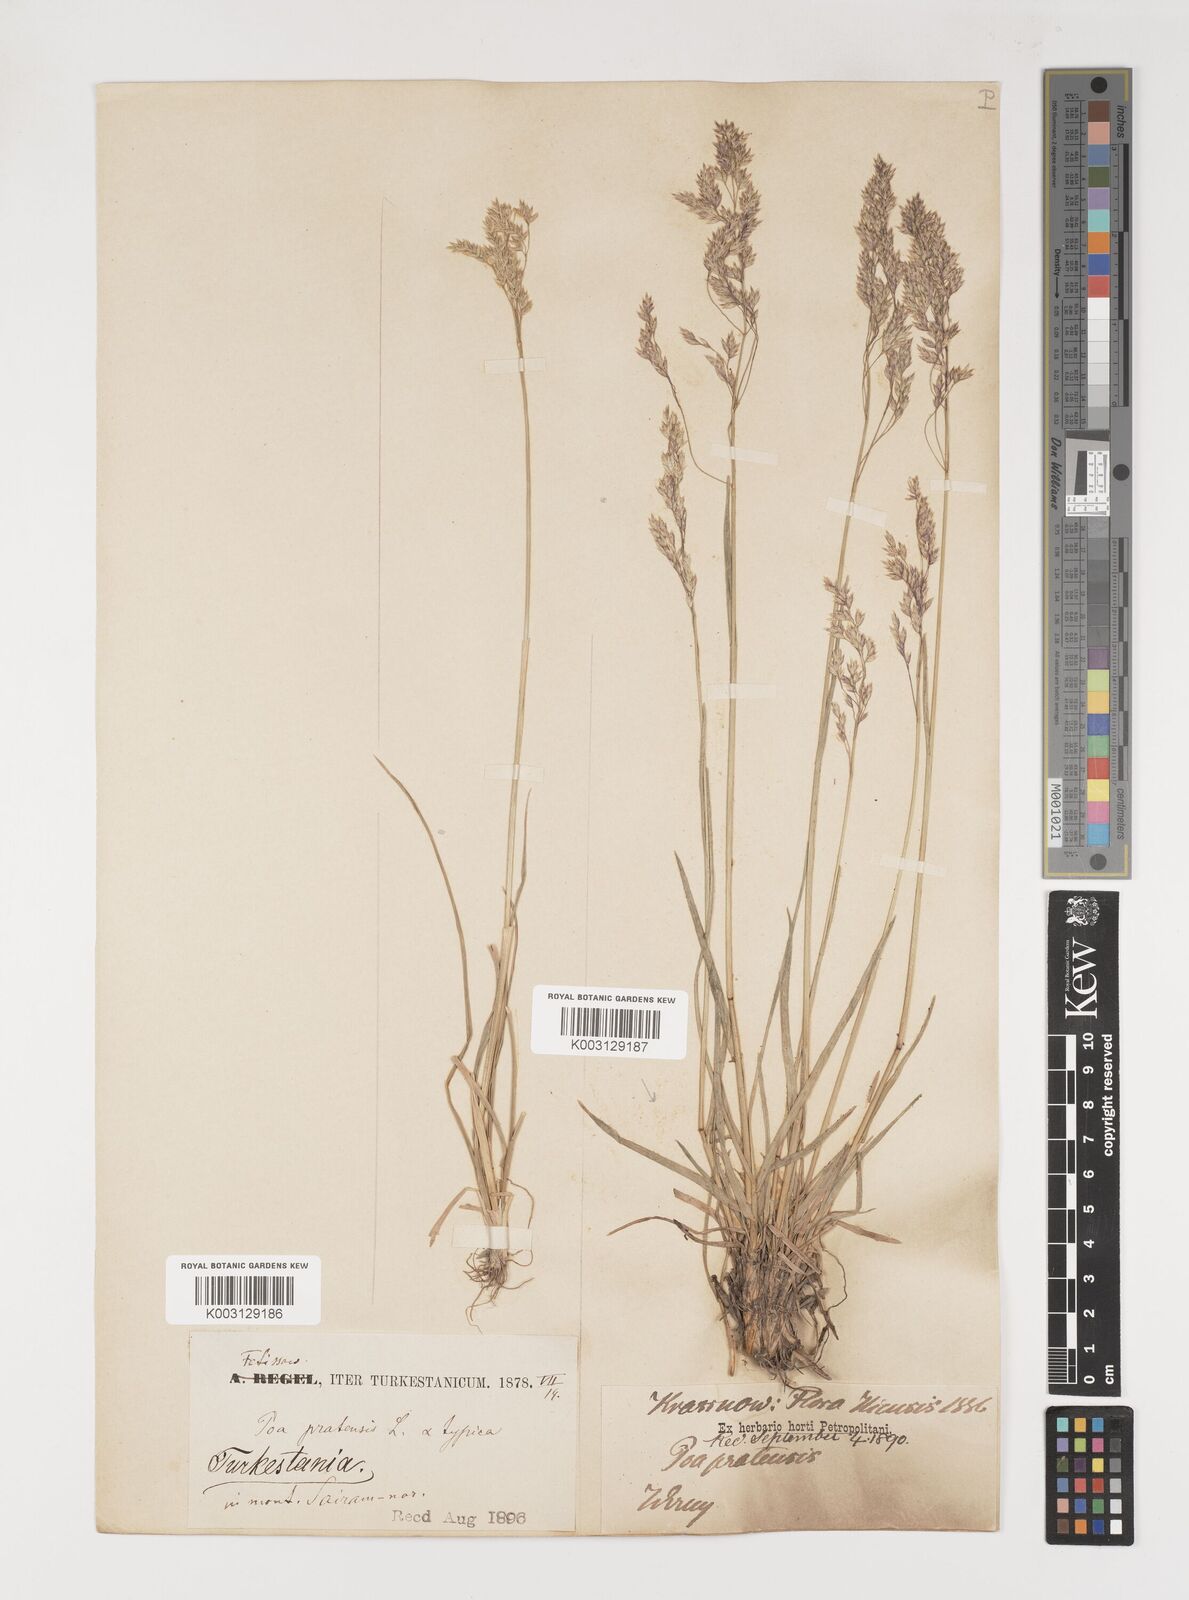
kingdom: Plantae
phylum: Tracheophyta
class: Liliopsida
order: Poales
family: Poaceae
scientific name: Poaceae
